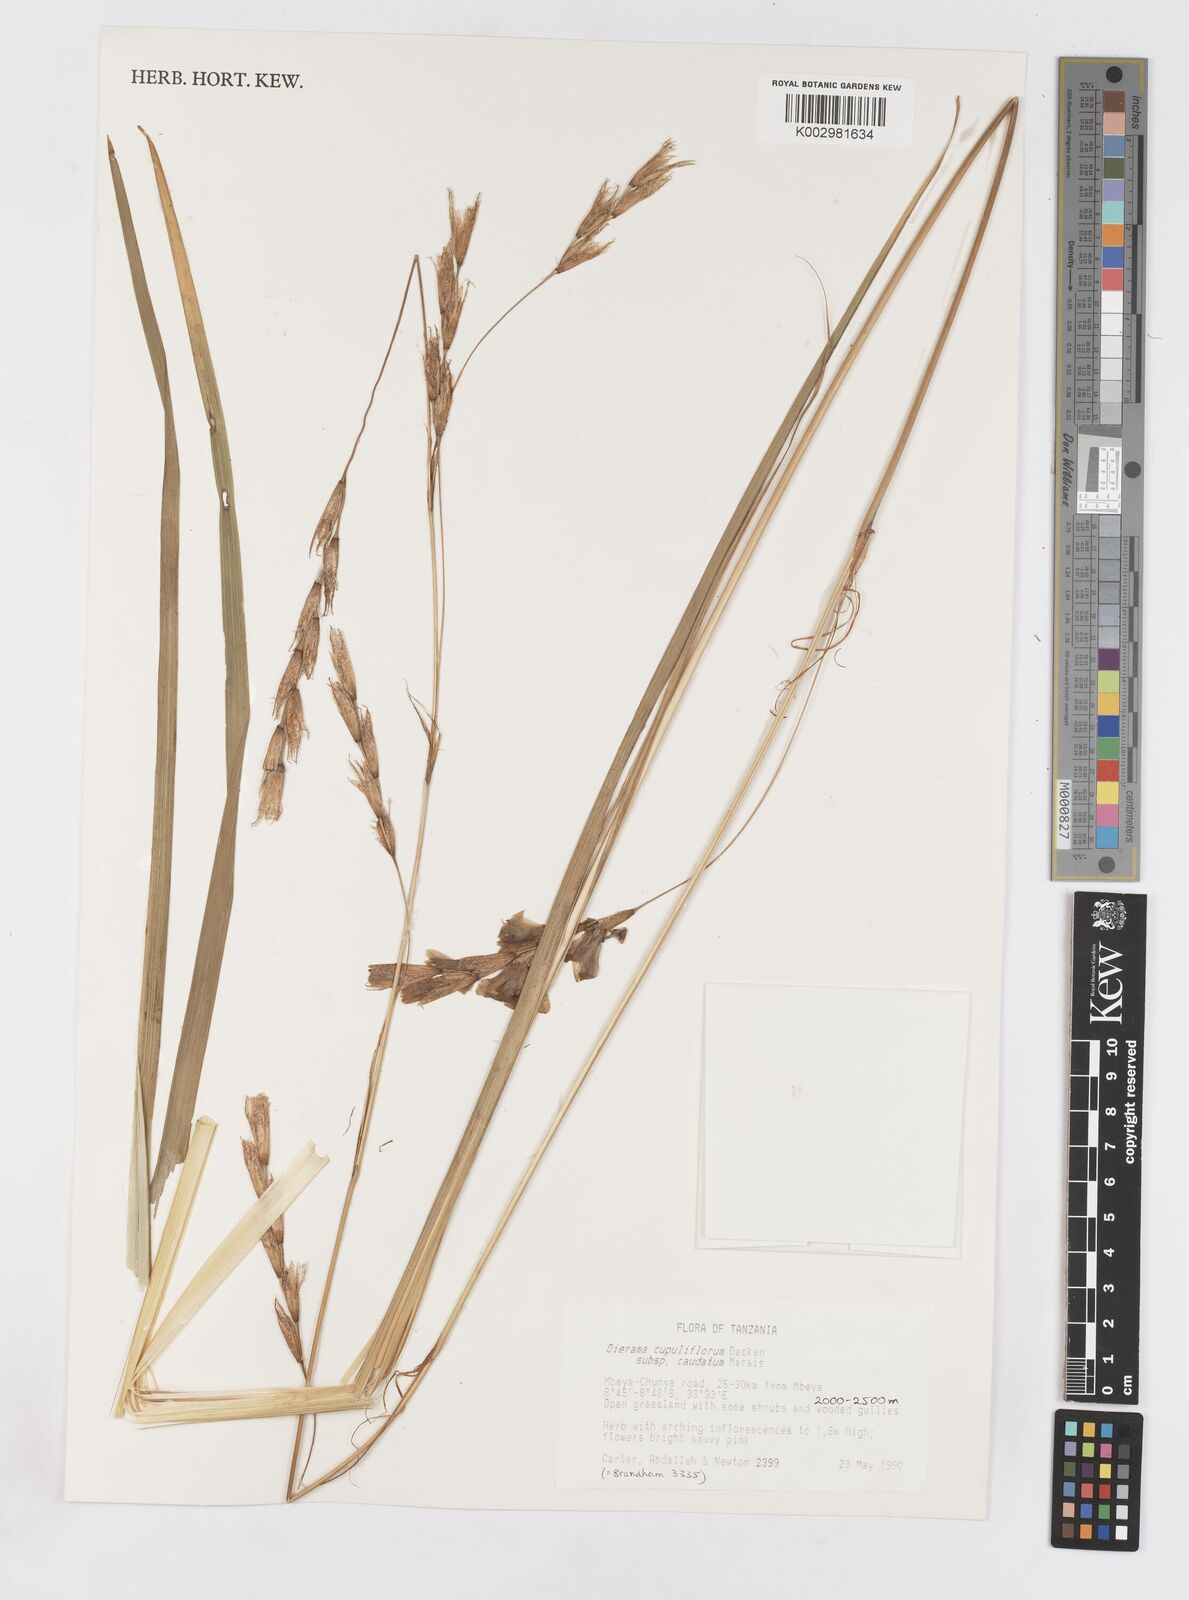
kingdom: Plantae
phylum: Tracheophyta
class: Liliopsida
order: Asparagales
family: Iridaceae
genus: Dierama
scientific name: Dierama cupuliflorum
